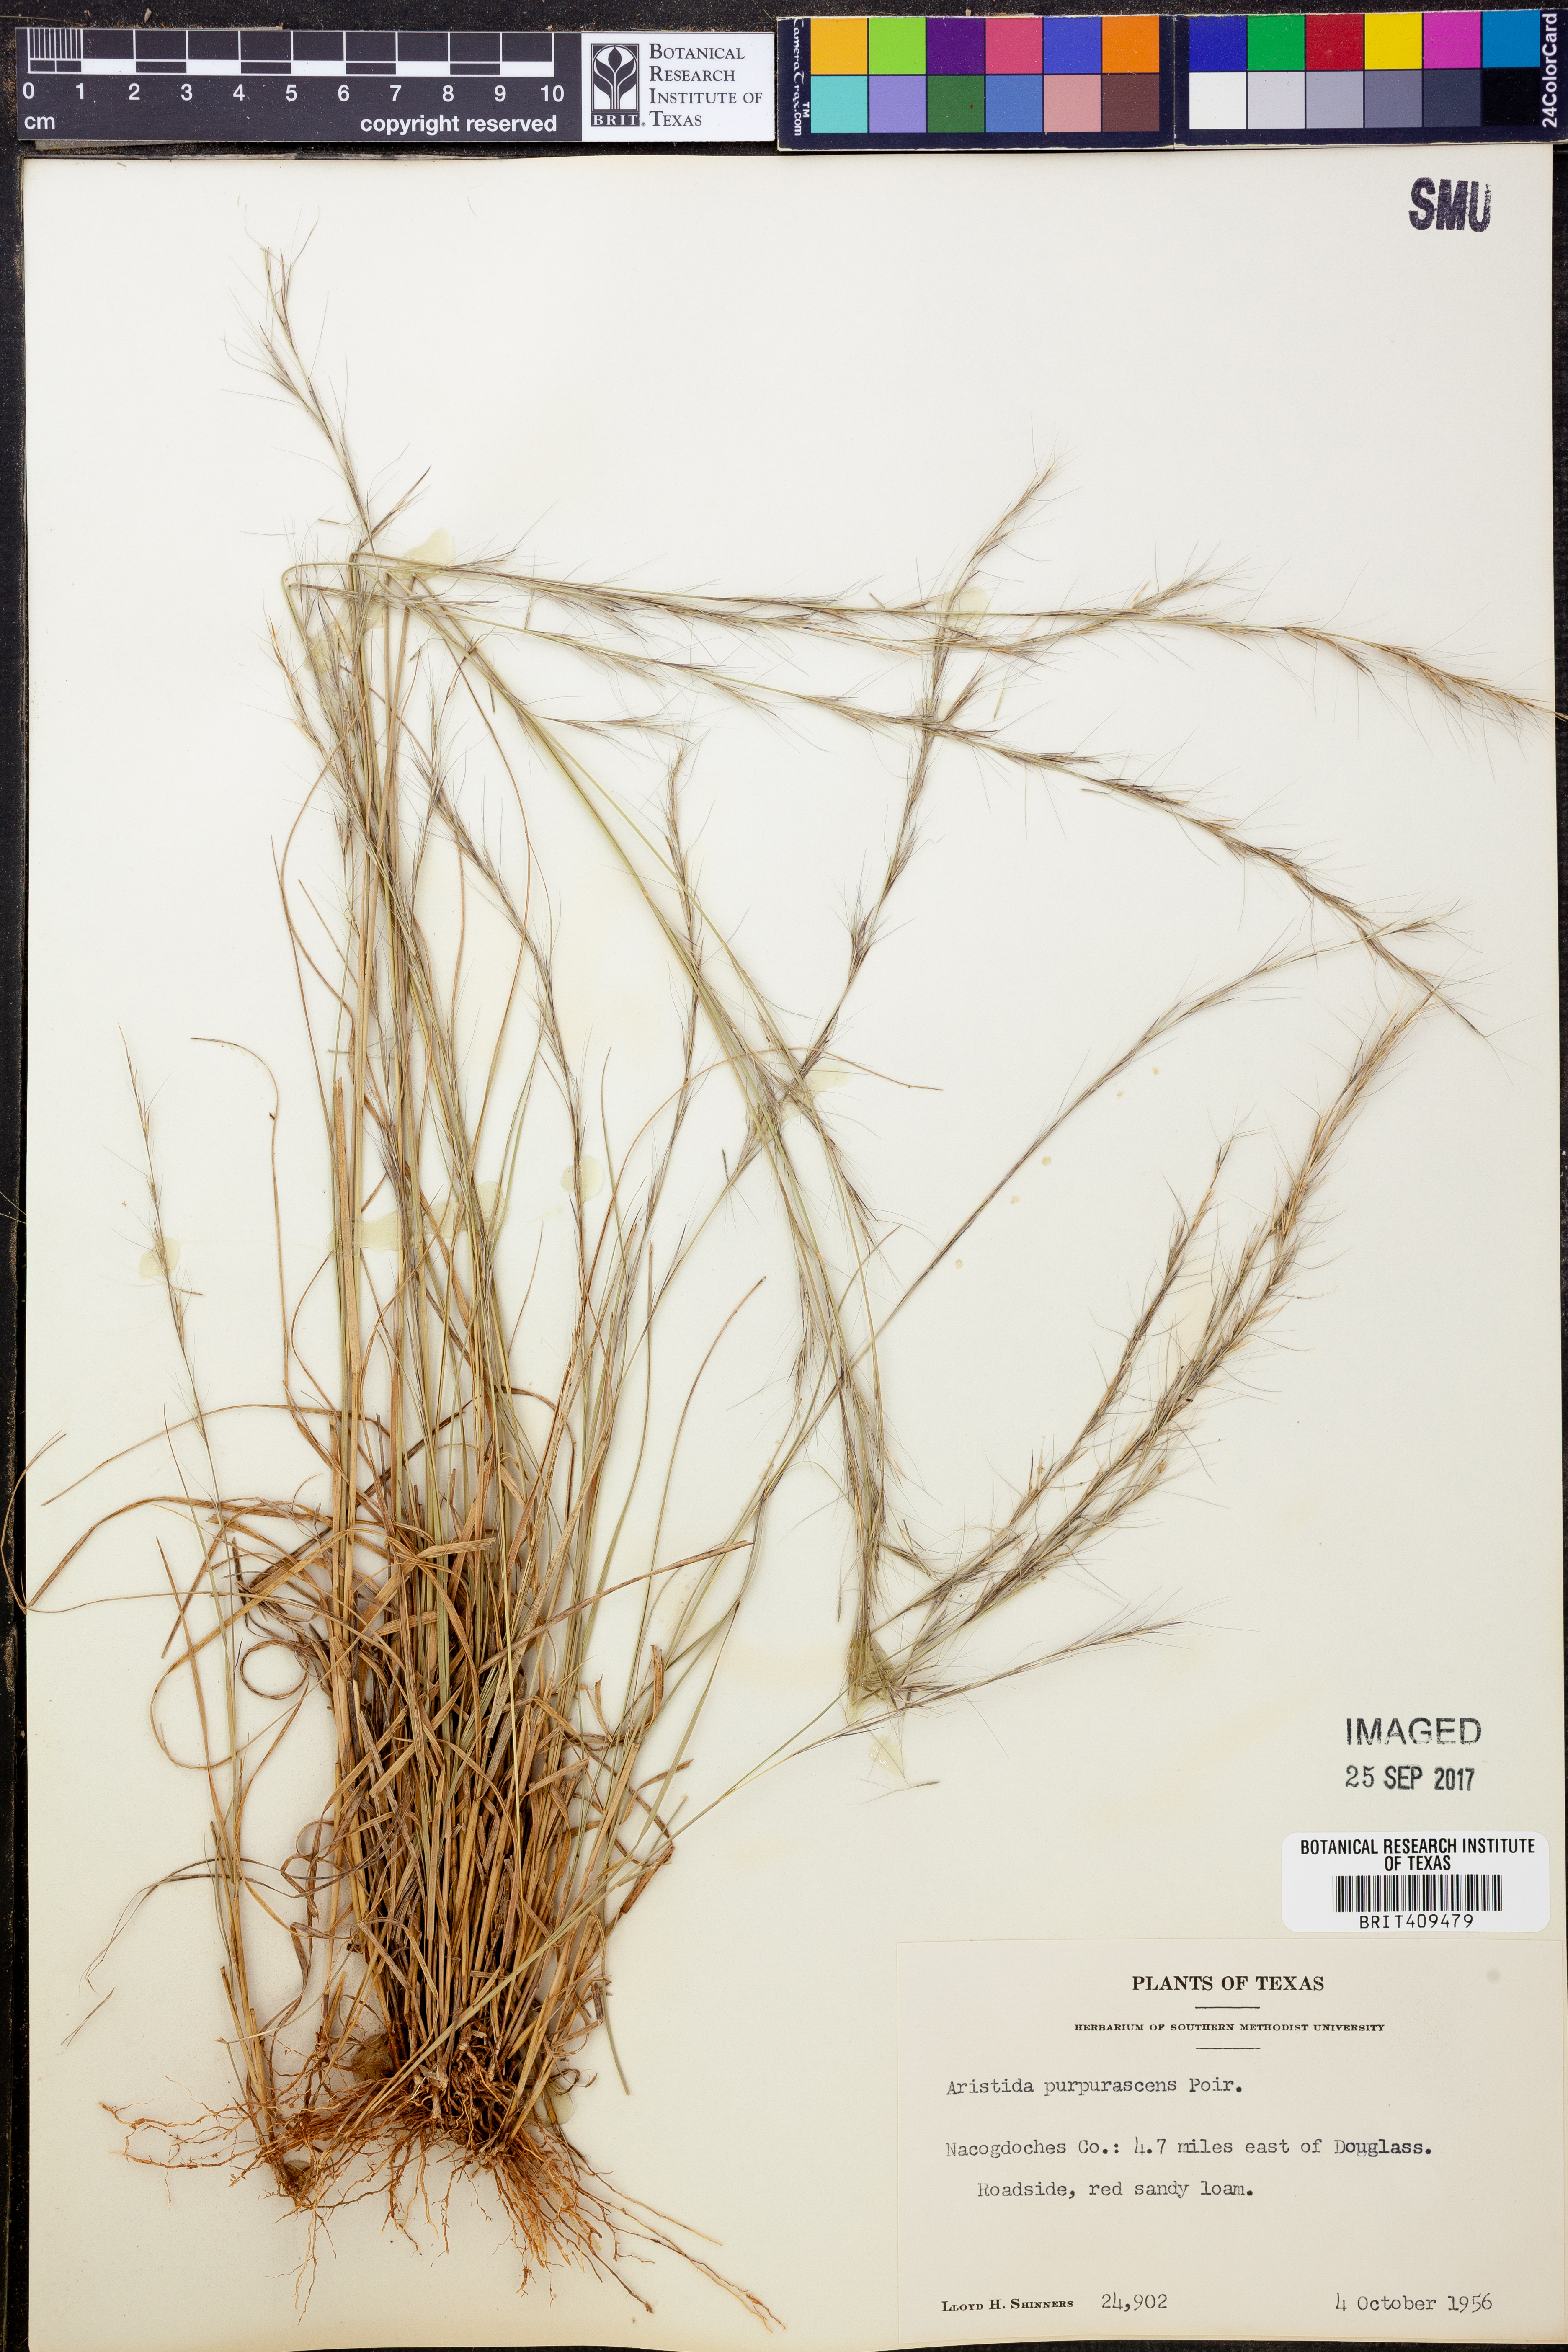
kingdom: Plantae
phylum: Tracheophyta
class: Liliopsida
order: Poales
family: Poaceae
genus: Aristida
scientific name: Aristida purpurascens
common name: Arrow-feather
